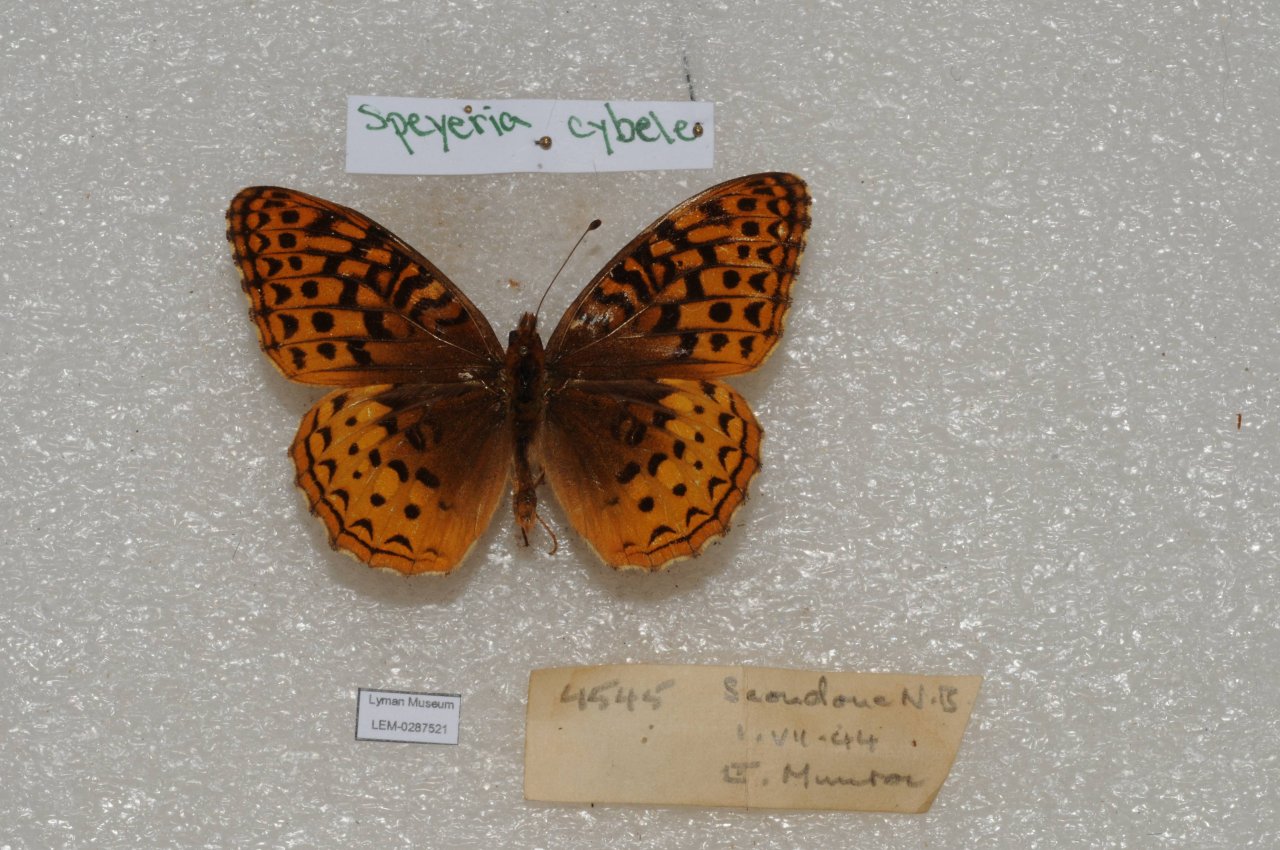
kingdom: Animalia
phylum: Arthropoda
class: Insecta
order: Lepidoptera
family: Nymphalidae
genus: Speyeria
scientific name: Speyeria cybele
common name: Great Spangled Fritillary
